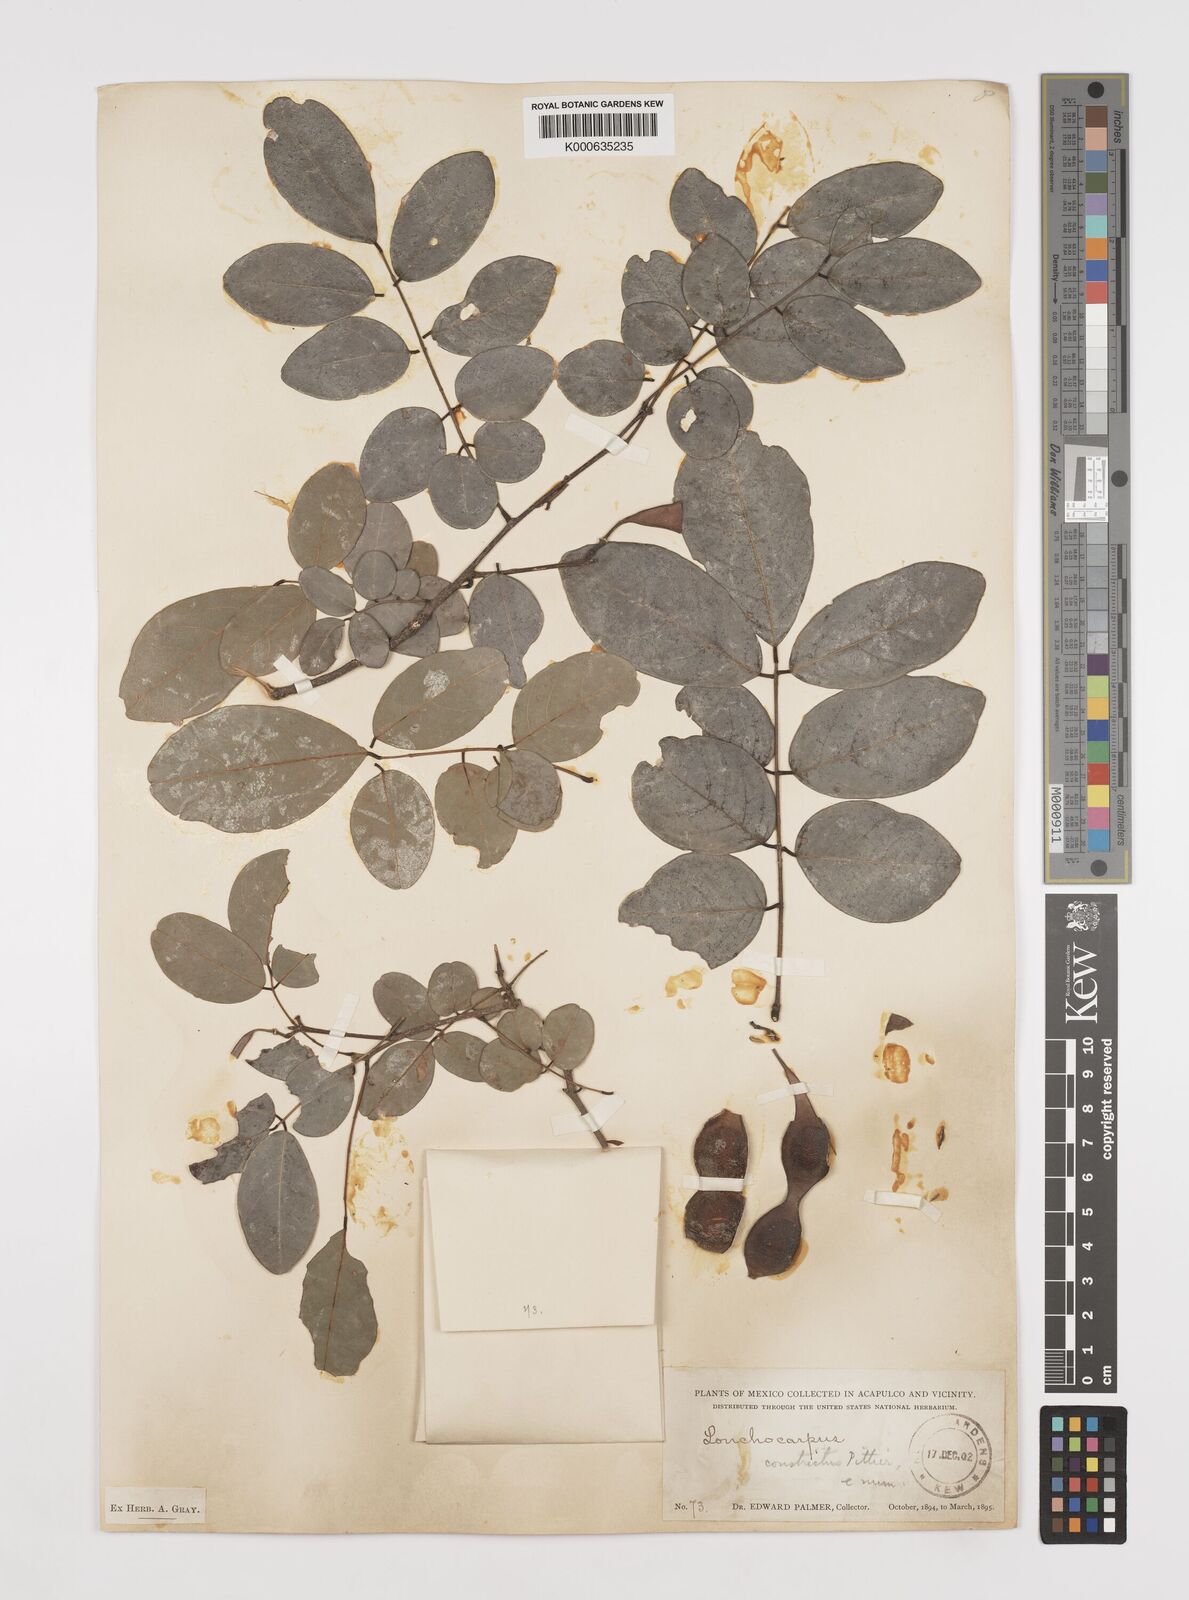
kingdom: Plantae
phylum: Tracheophyta
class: Magnoliopsida
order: Fabales
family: Fabaceae
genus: Lonchocarpus
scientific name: Lonchocarpus constrictus
